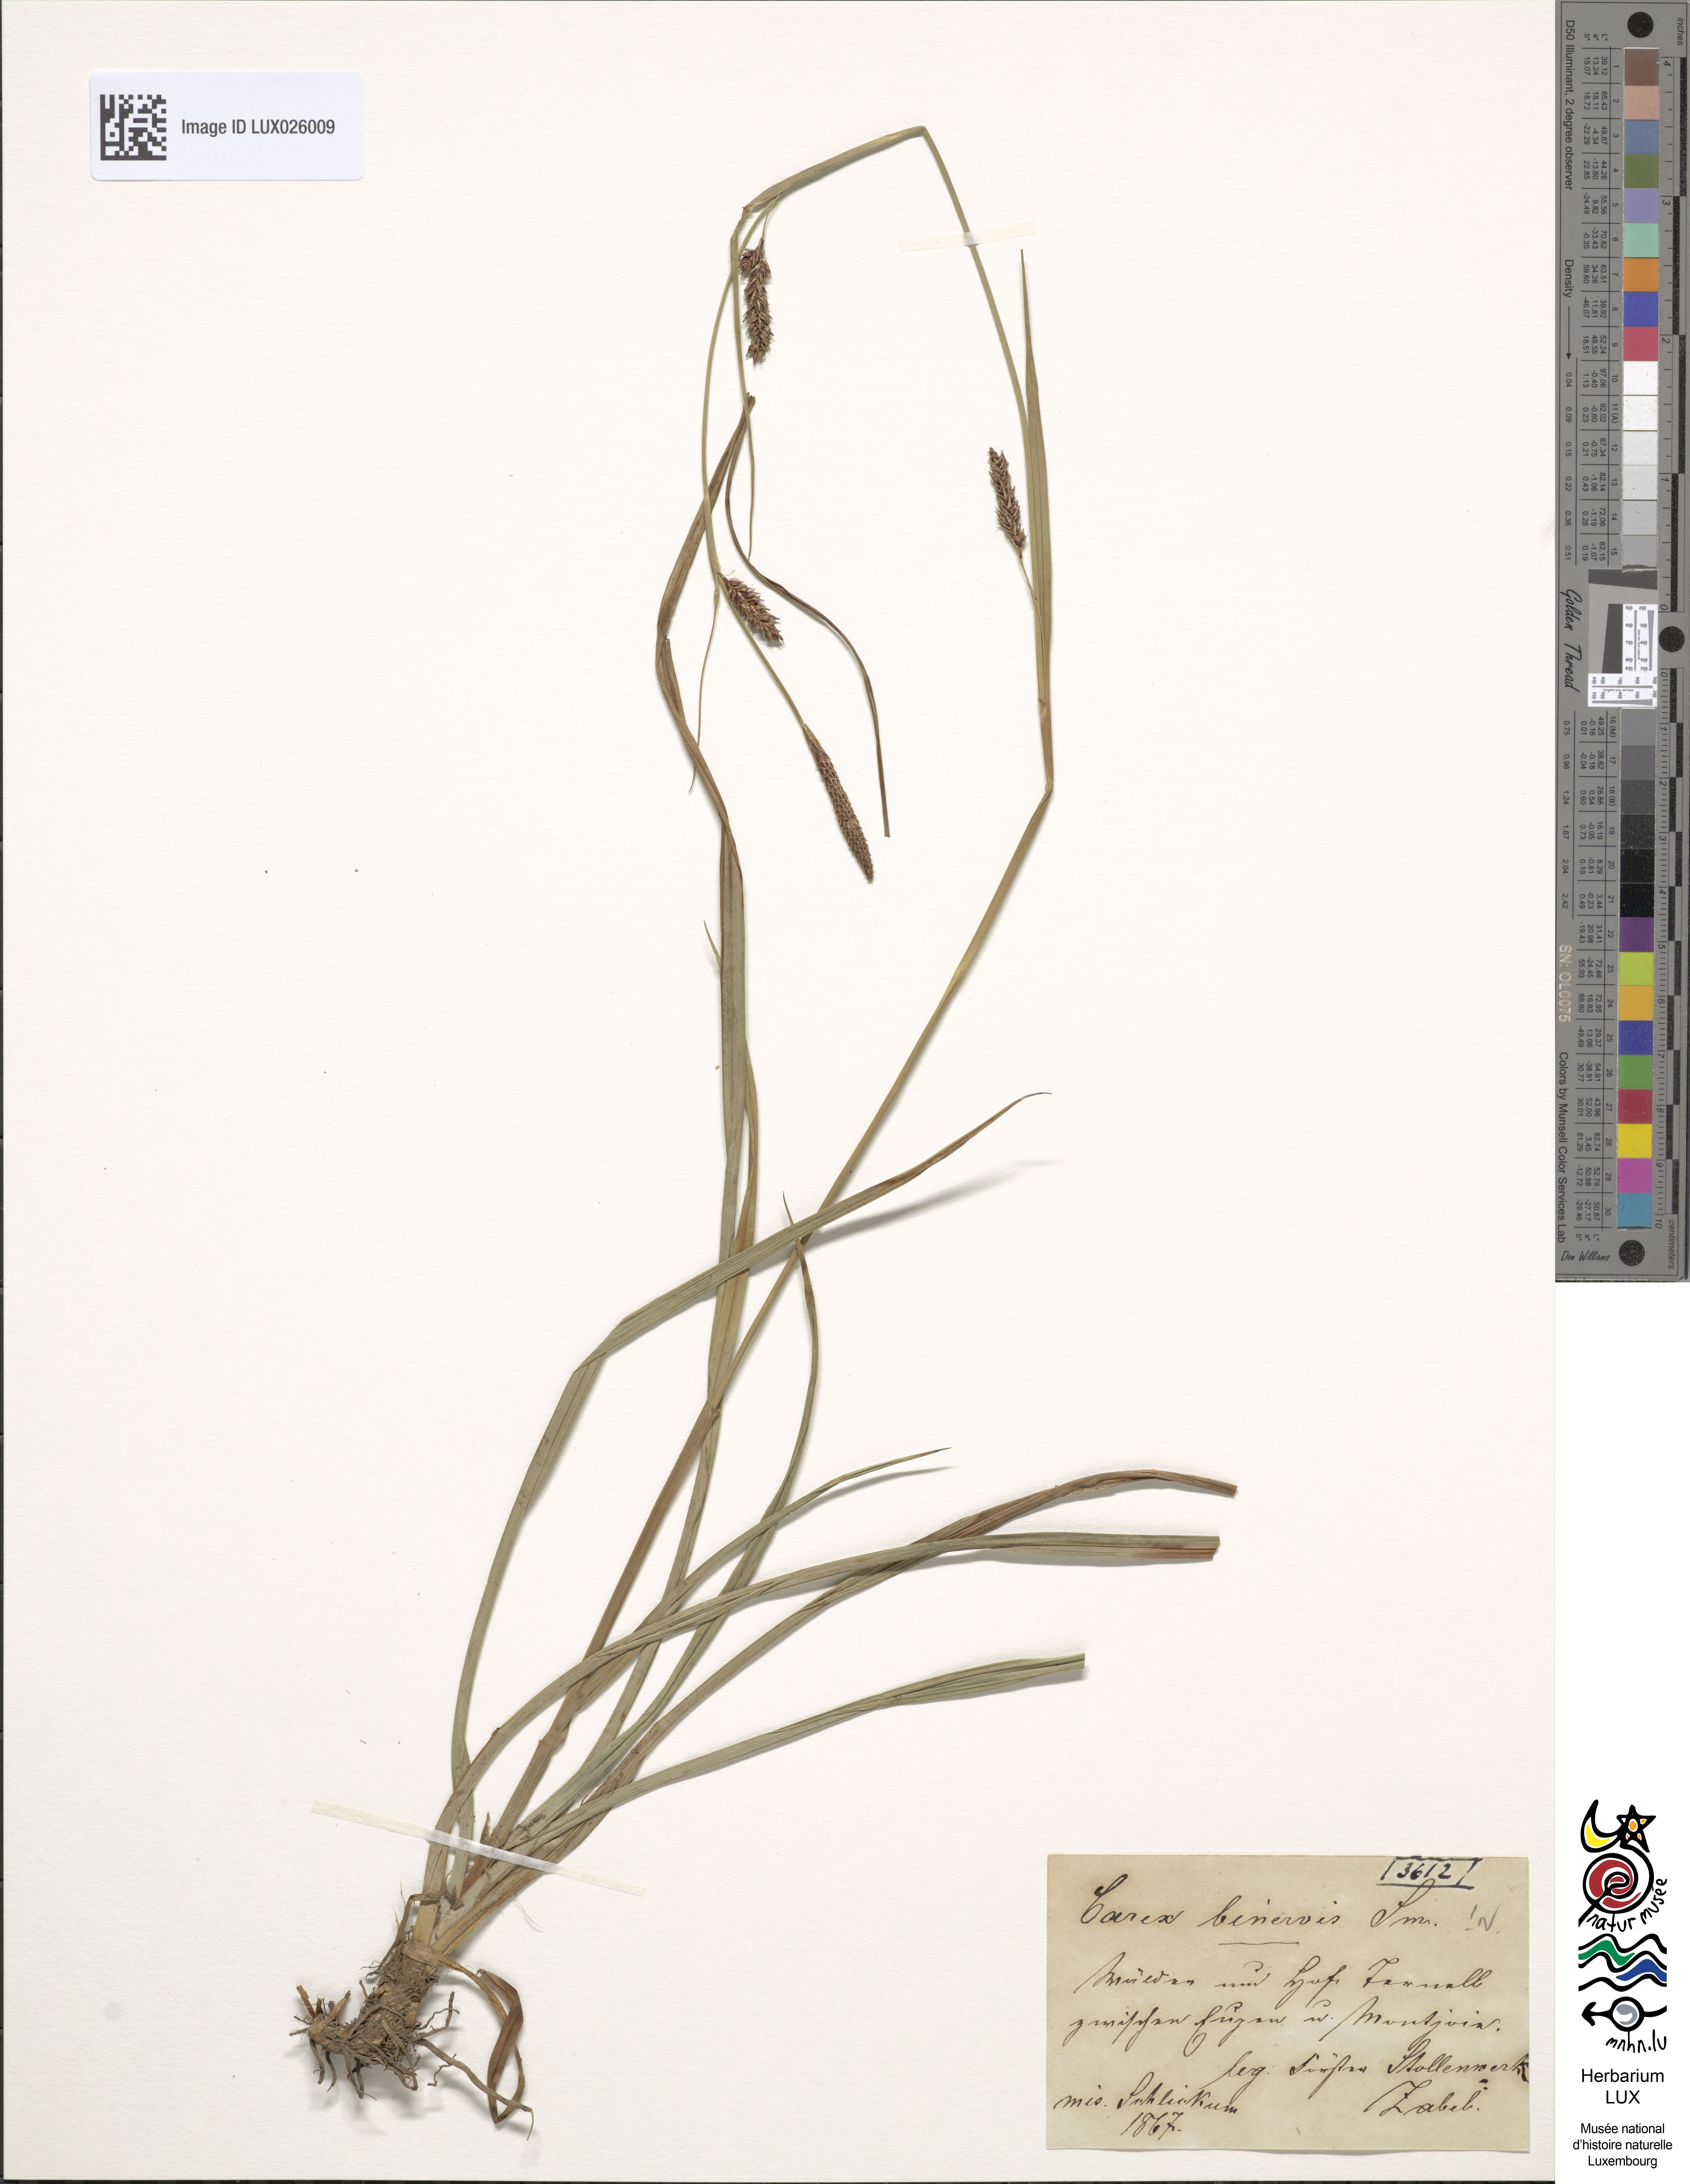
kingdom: Plantae
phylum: Tracheophyta
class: Liliopsida
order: Poales
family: Cyperaceae
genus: Carex
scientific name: Carex binervis
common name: Green-ribbed sedge
